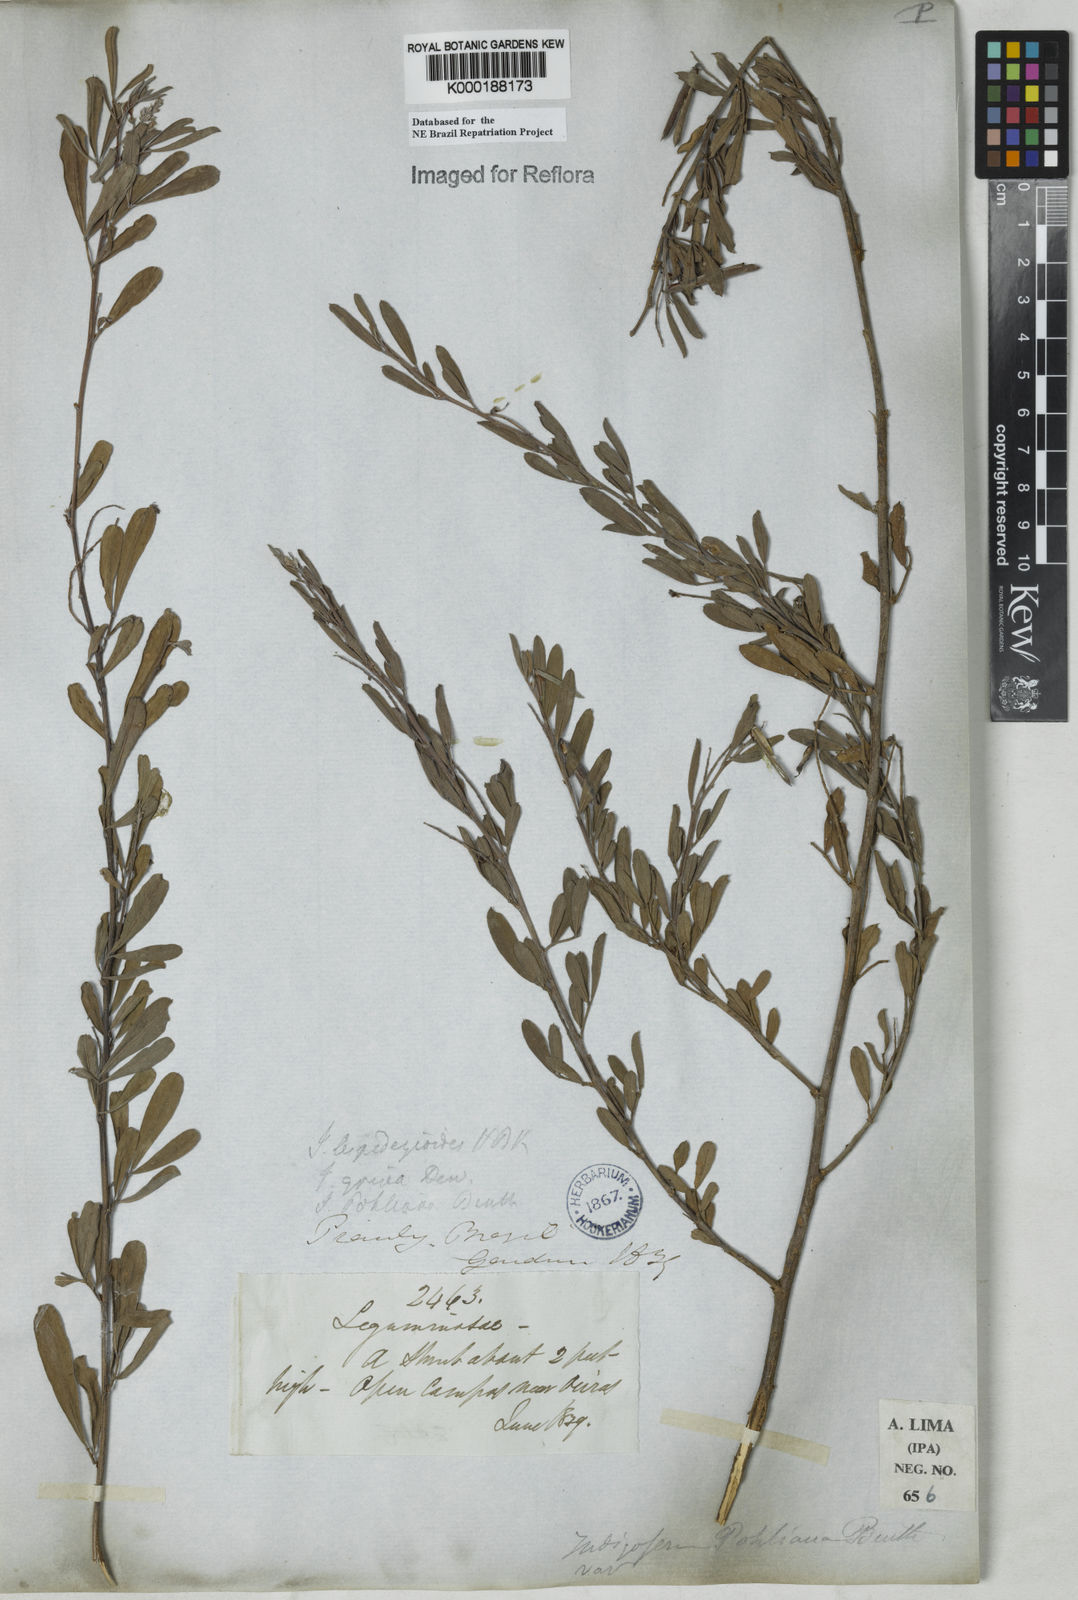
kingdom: Plantae
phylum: Tracheophyta
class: Magnoliopsida
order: Fabales
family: Fabaceae
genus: Indigofera
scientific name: Indigofera lespedezioides
